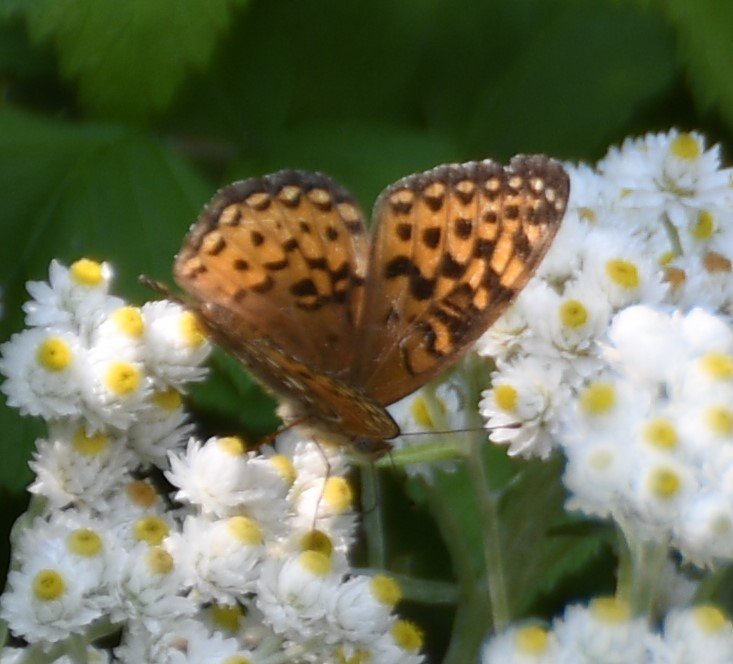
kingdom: Animalia
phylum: Arthropoda
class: Insecta
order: Lepidoptera
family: Nymphalidae
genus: Speyeria
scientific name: Speyeria atlantis
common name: Atlantis Fritillary
